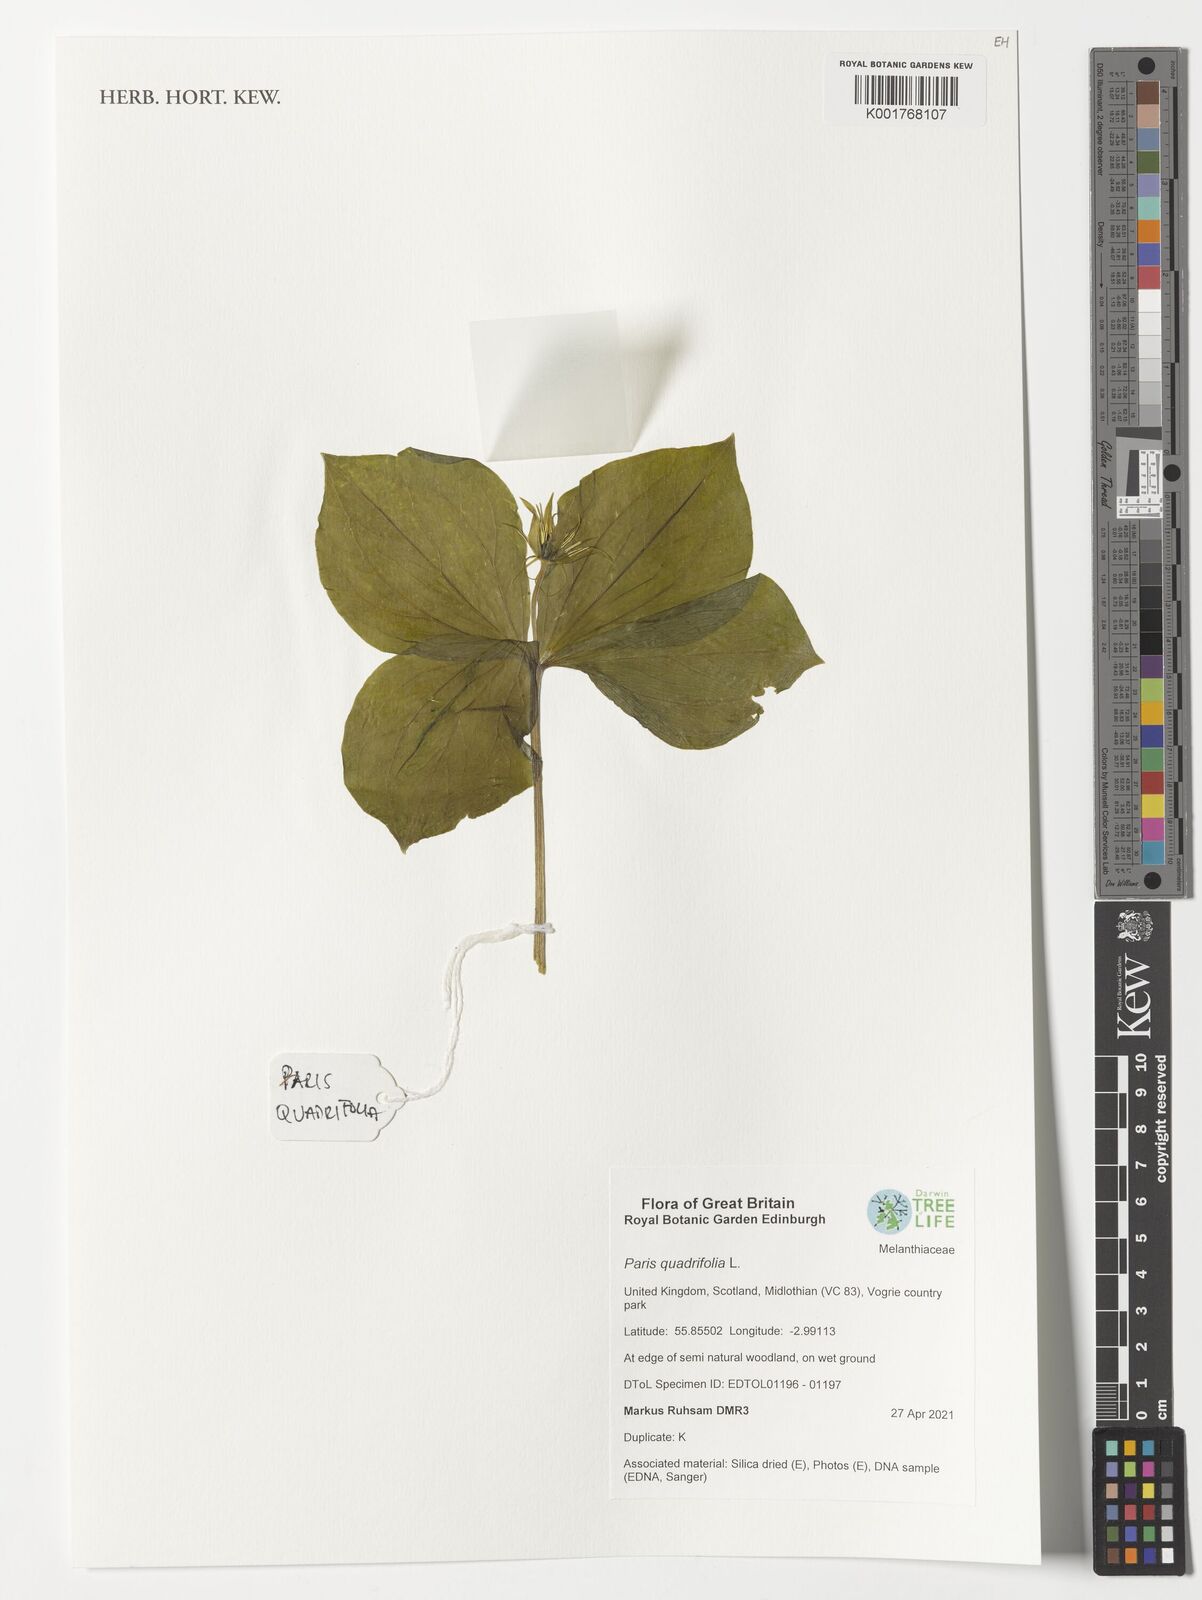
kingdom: Plantae
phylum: Tracheophyta
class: Liliopsida
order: Liliales
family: Melanthiaceae
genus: Paris
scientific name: Paris quadrifolia
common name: Herb-paris
